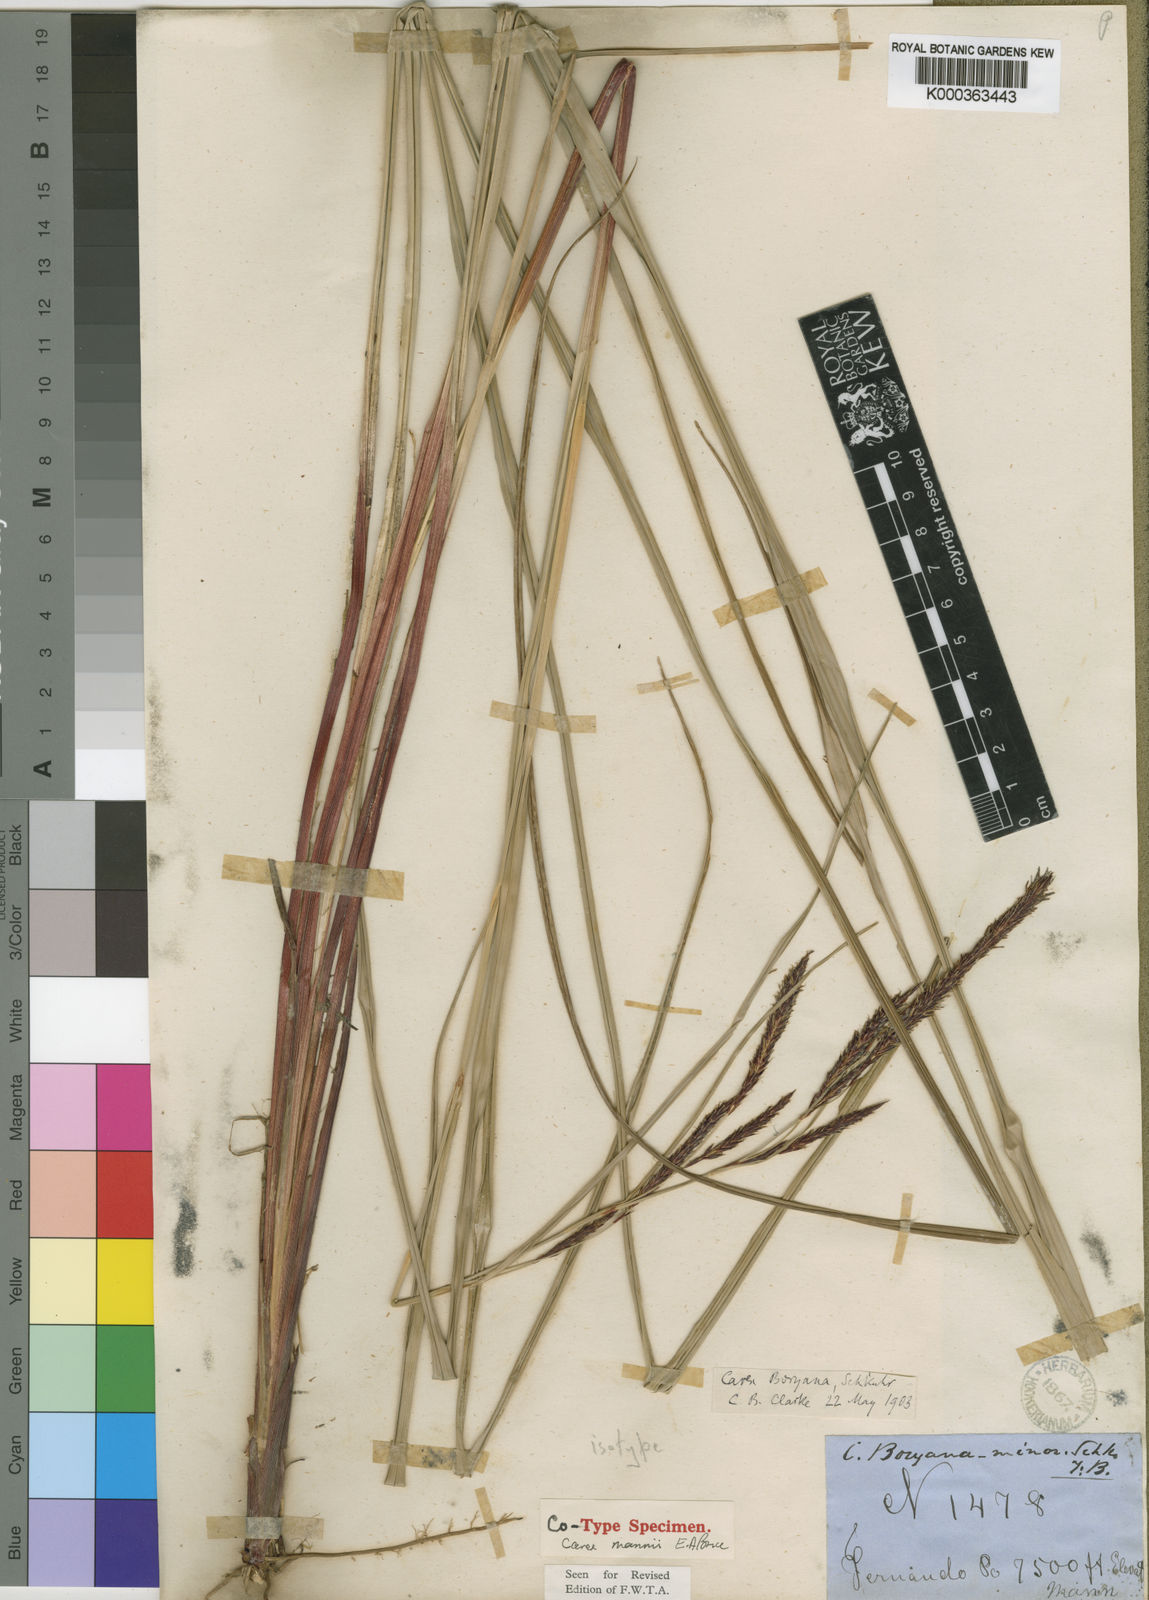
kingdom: Plantae
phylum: Tracheophyta
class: Liliopsida
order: Poales
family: Cyperaceae
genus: Carex
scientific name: Carex mannii
